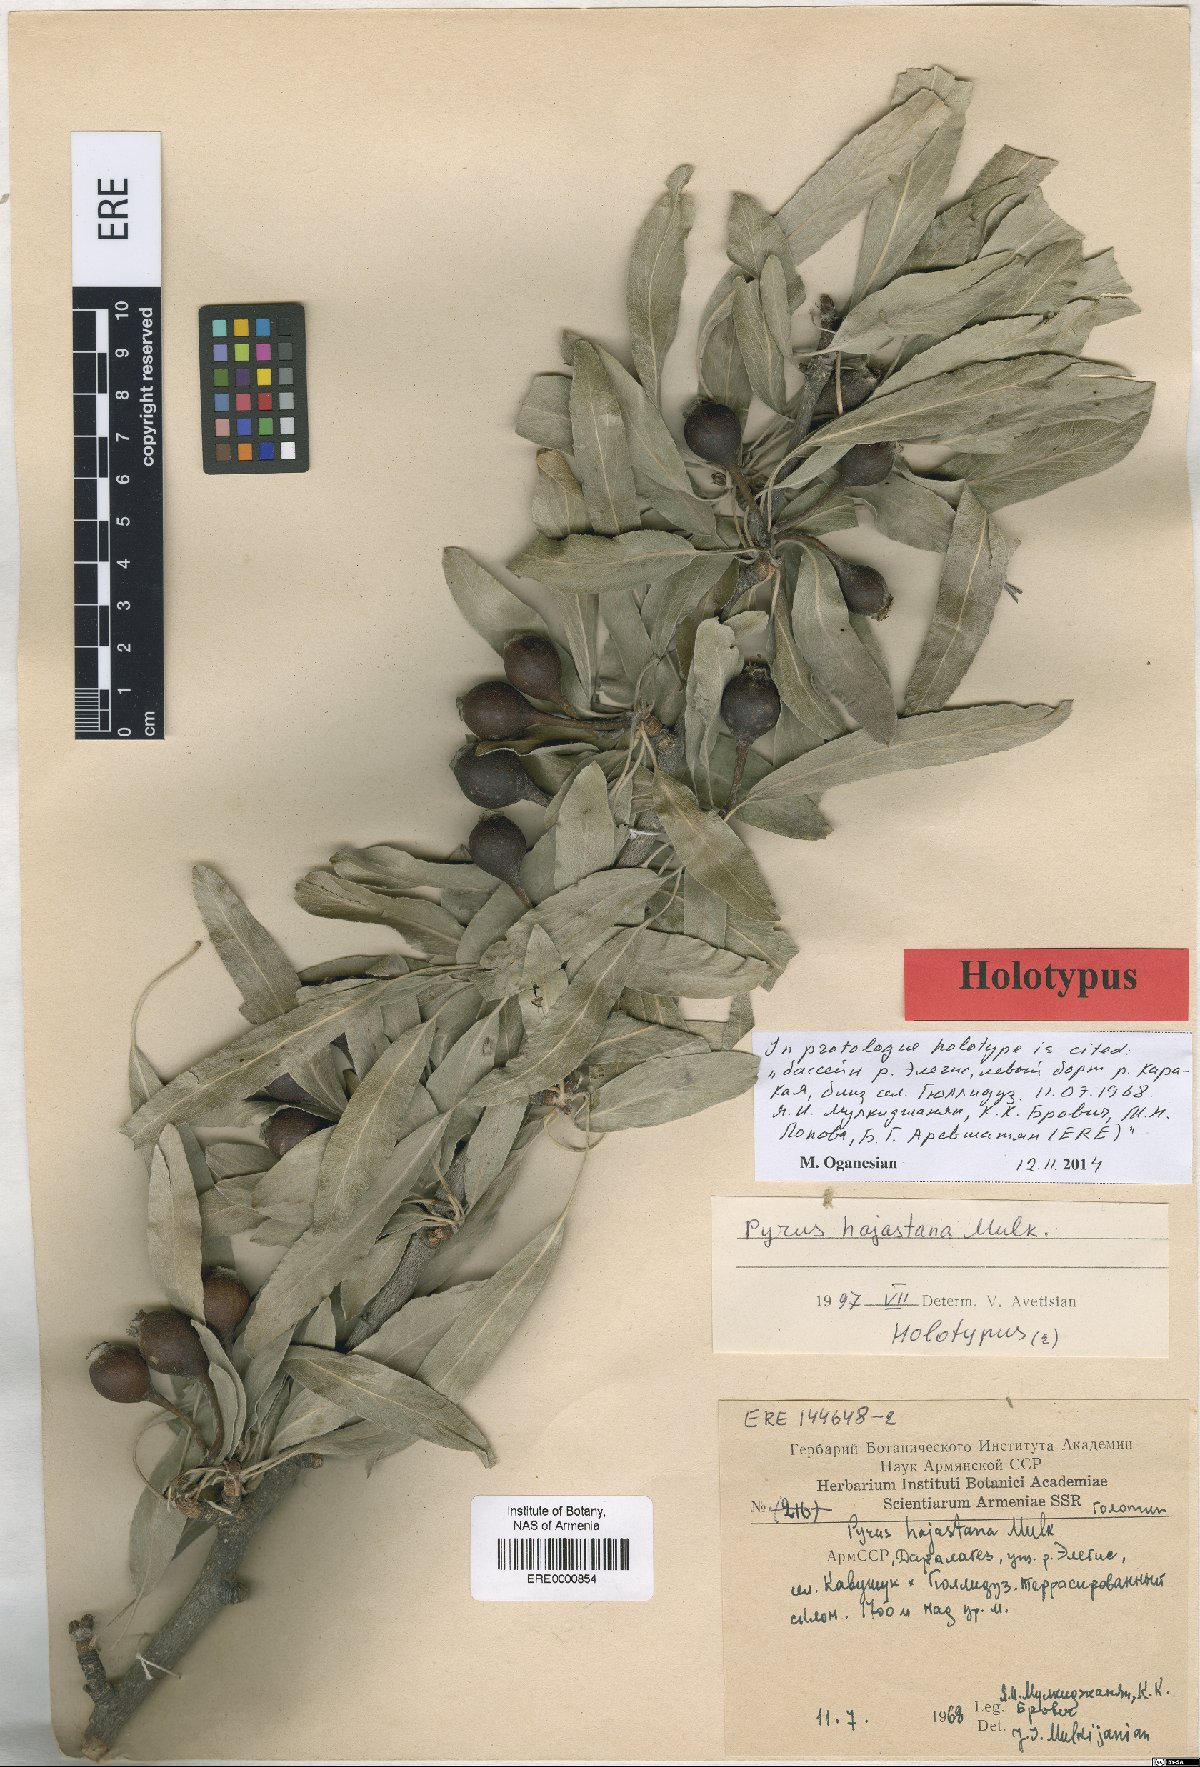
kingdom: Plantae
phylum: Tracheophyta
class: Magnoliopsida
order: Rosales
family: Rosaceae
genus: Pyrus
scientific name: Pyrus hajastana
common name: Hayastanyan pear
